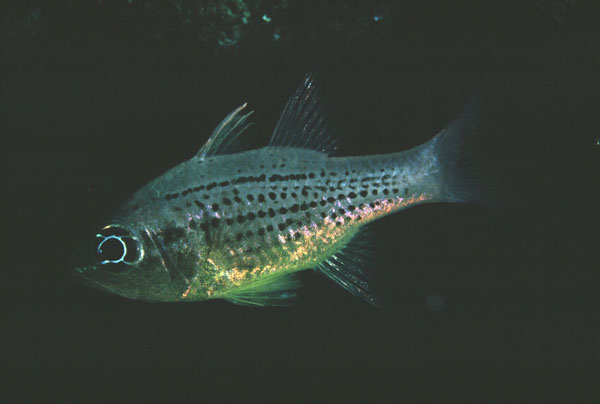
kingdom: Animalia
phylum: Chordata
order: Perciformes
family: Apogonidae
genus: Ostorhinchus
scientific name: Ostorhinchus maculiferus
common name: Spotted cardinalfish
